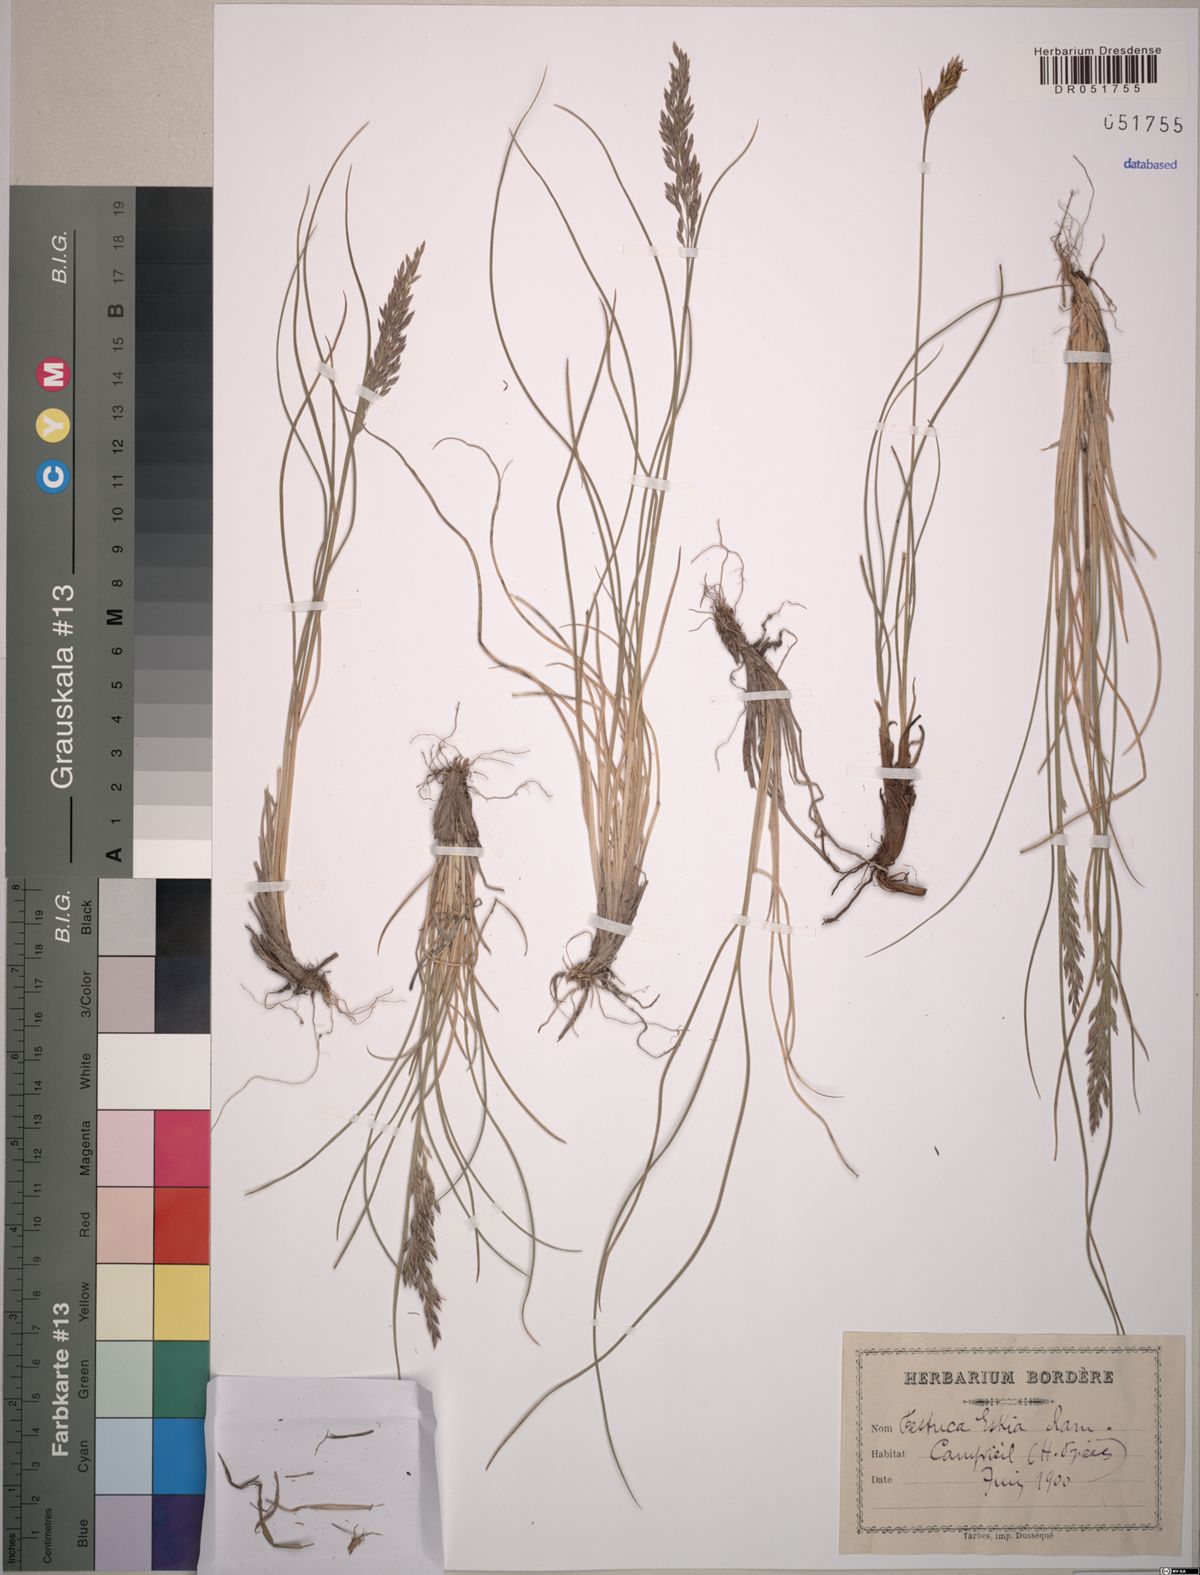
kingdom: Plantae
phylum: Tracheophyta
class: Liliopsida
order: Poales
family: Poaceae
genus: Festuca
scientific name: Festuca eskia
